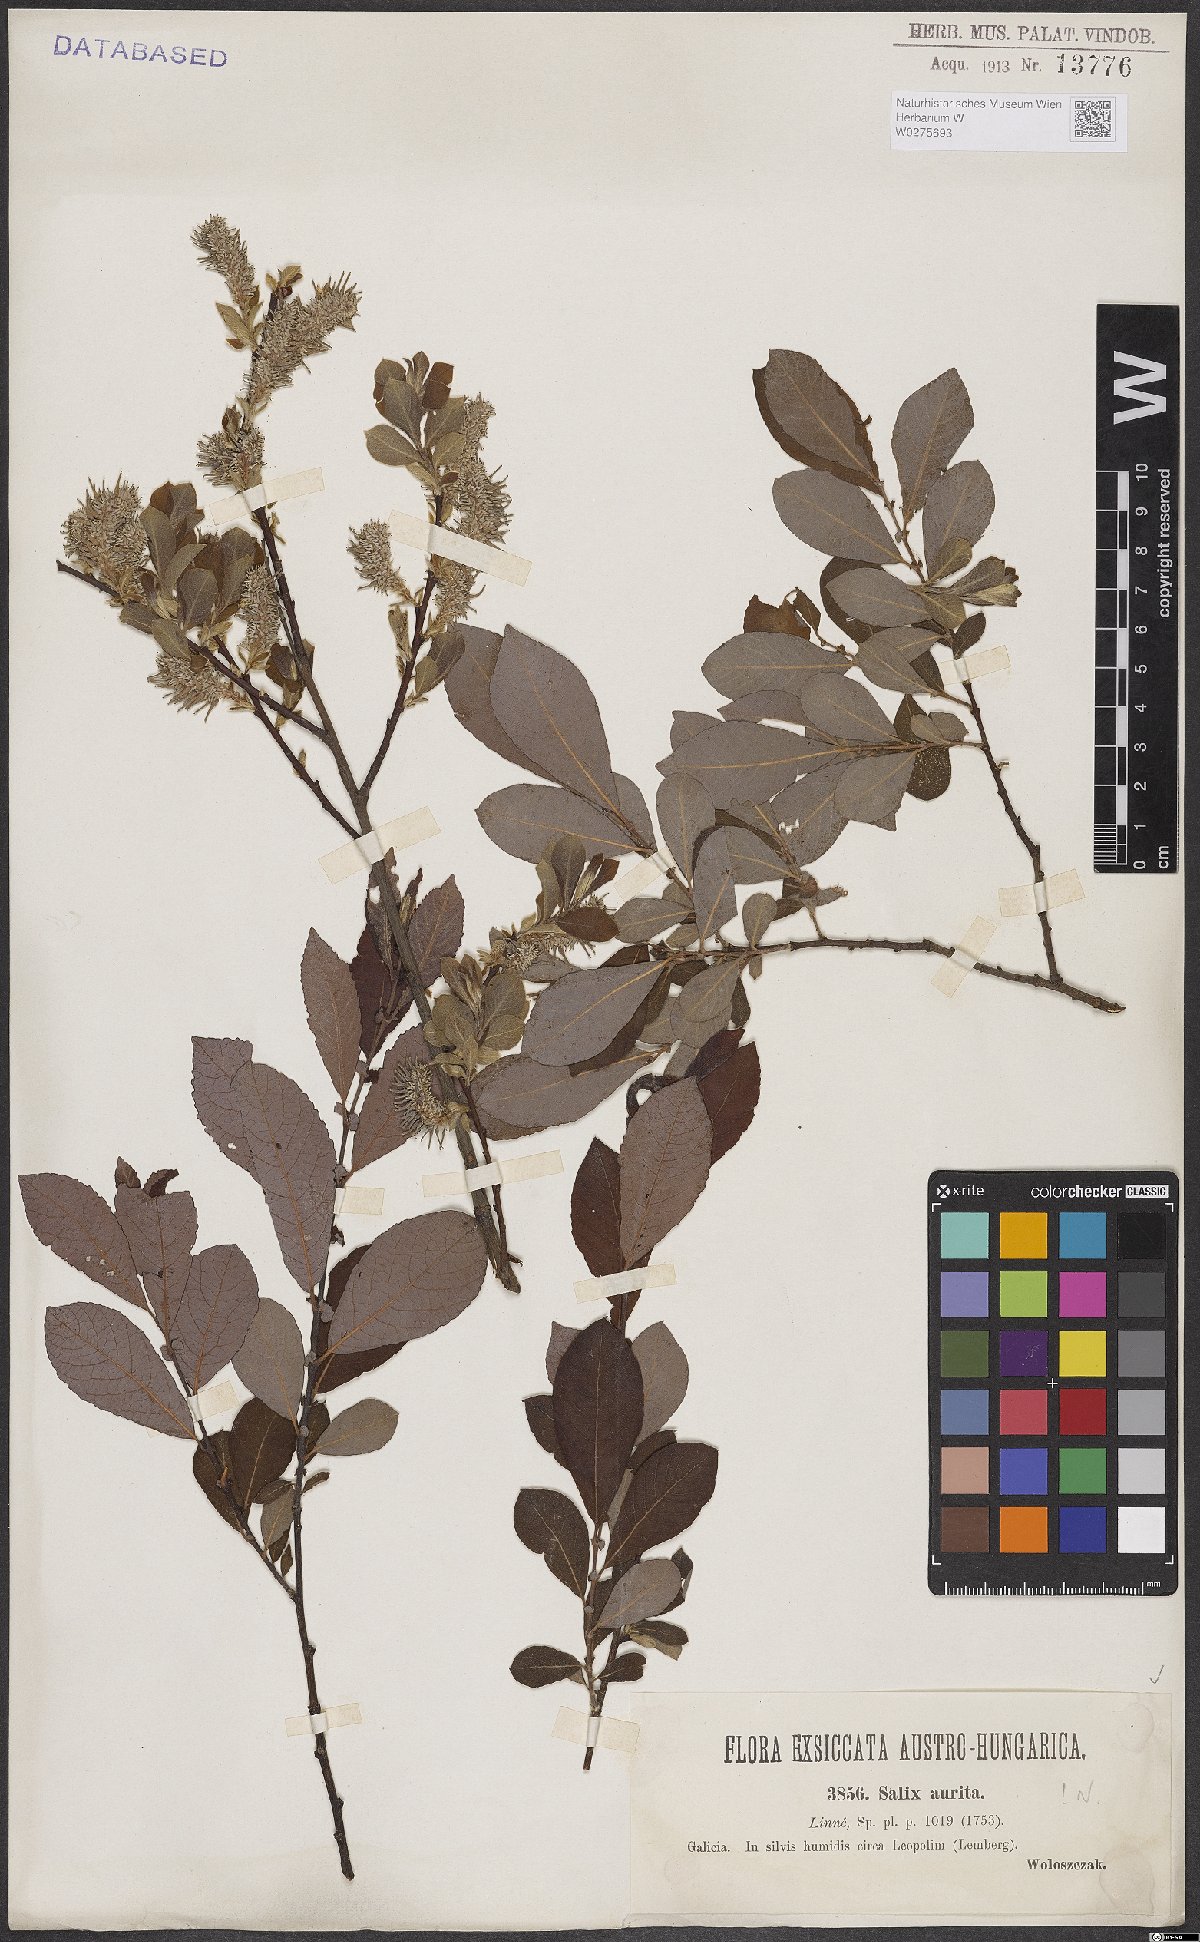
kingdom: Plantae
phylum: Tracheophyta
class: Magnoliopsida
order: Malpighiales
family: Salicaceae
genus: Salix
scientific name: Salix aurita
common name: Eared willow
